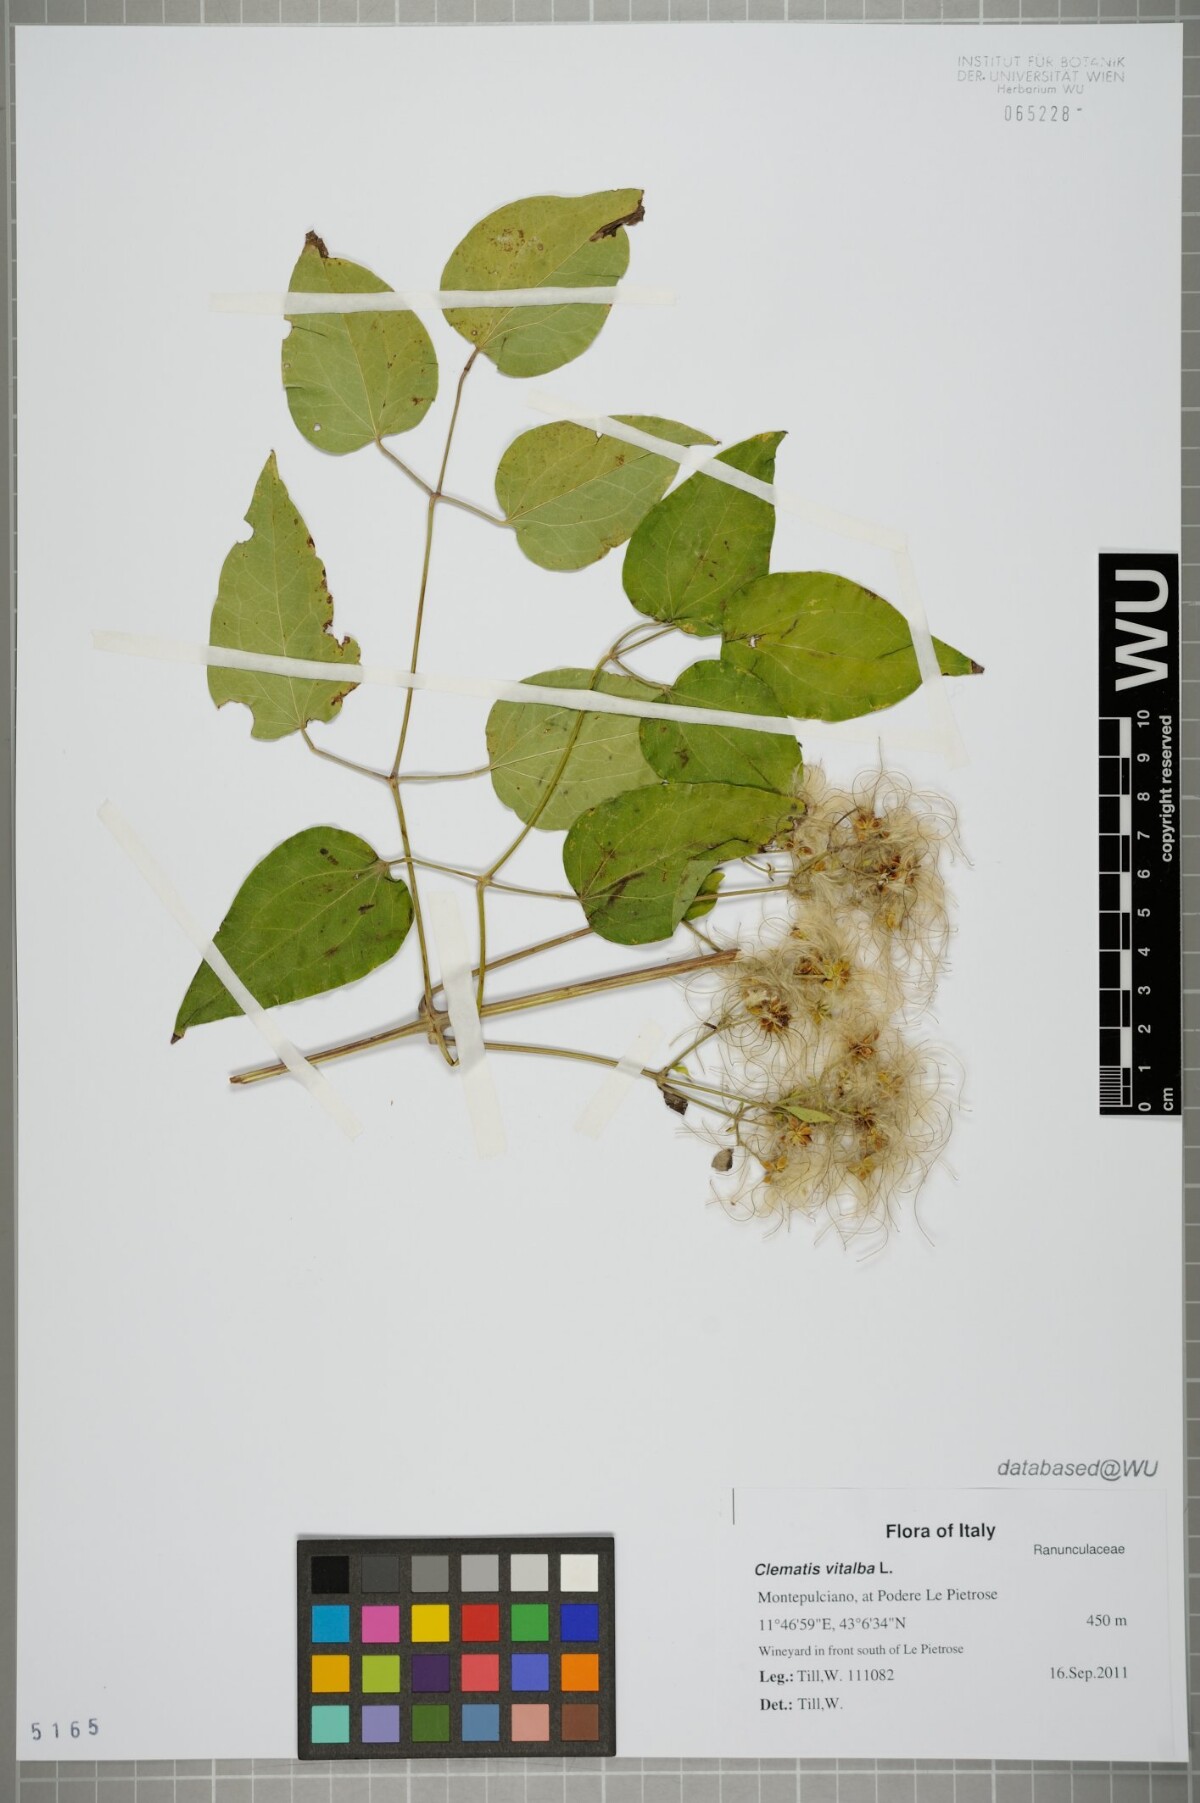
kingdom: Plantae
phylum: Tracheophyta
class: Magnoliopsida
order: Ranunculales
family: Ranunculaceae
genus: Clematis
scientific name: Clematis vitalba
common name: Evergreen clematis
